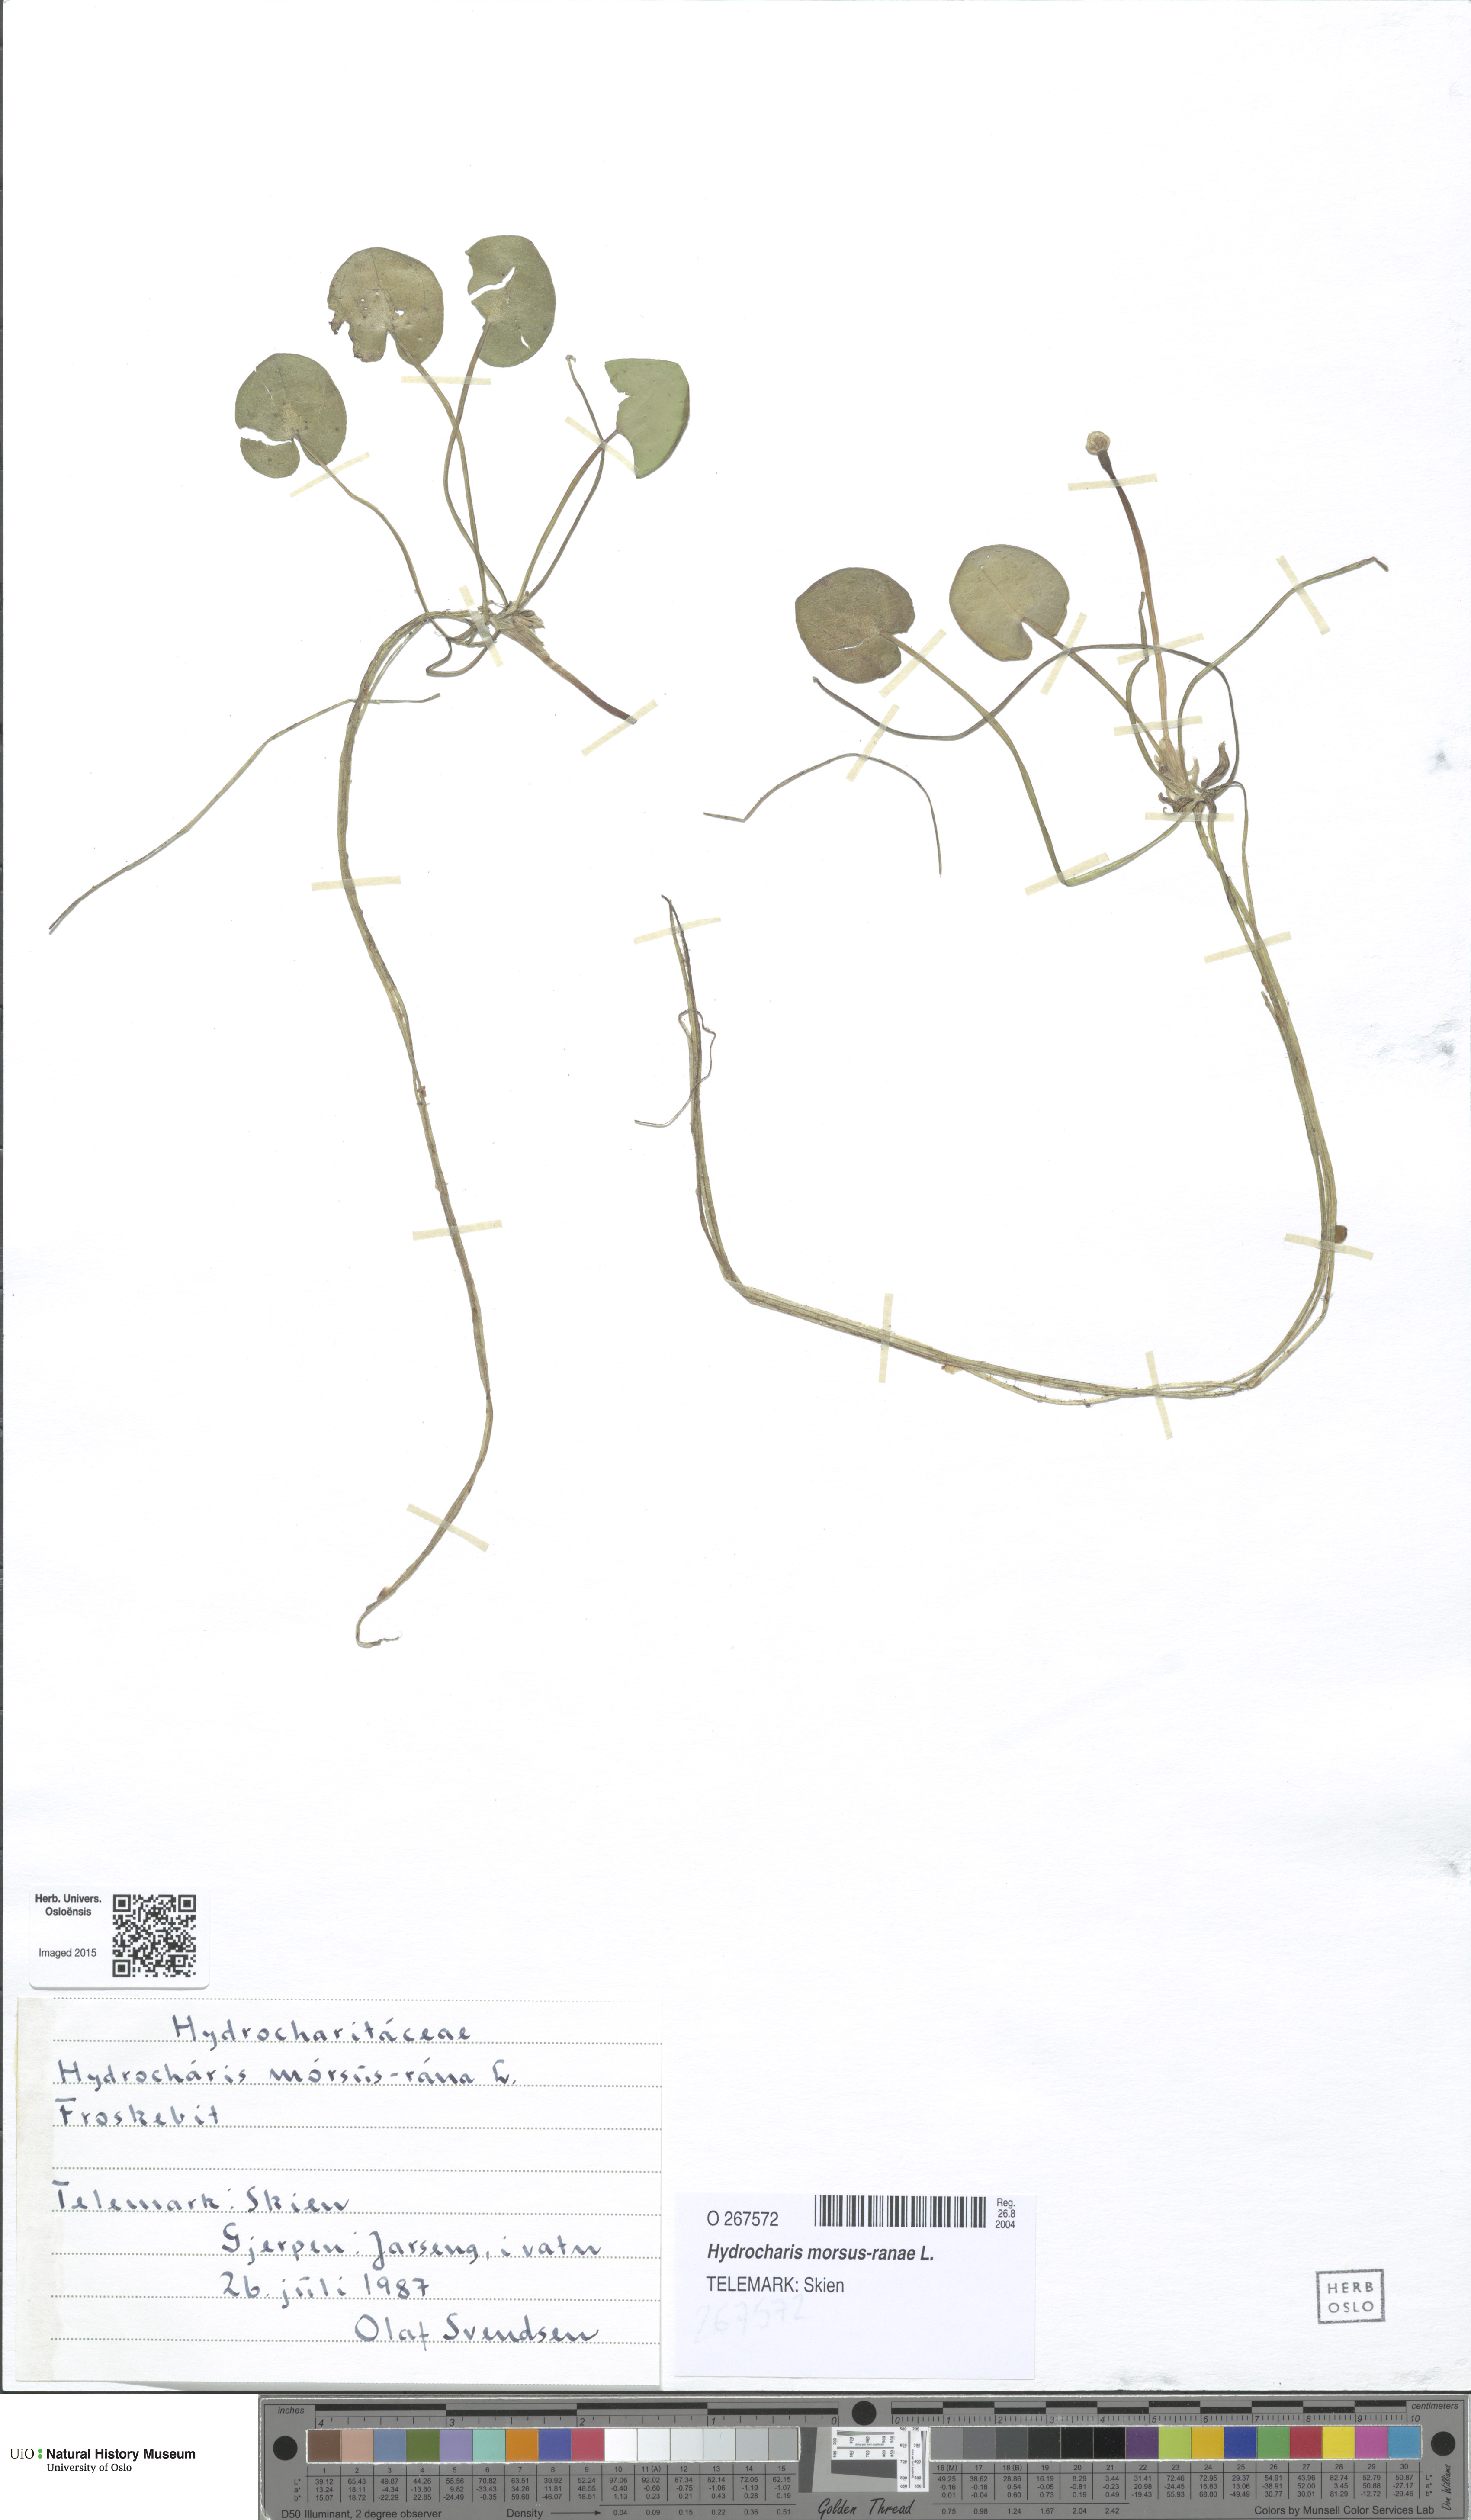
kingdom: Plantae
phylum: Tracheophyta
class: Liliopsida
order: Alismatales
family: Hydrocharitaceae
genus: Hydrocharis
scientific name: Hydrocharis morsus-ranae
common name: Frogbit
